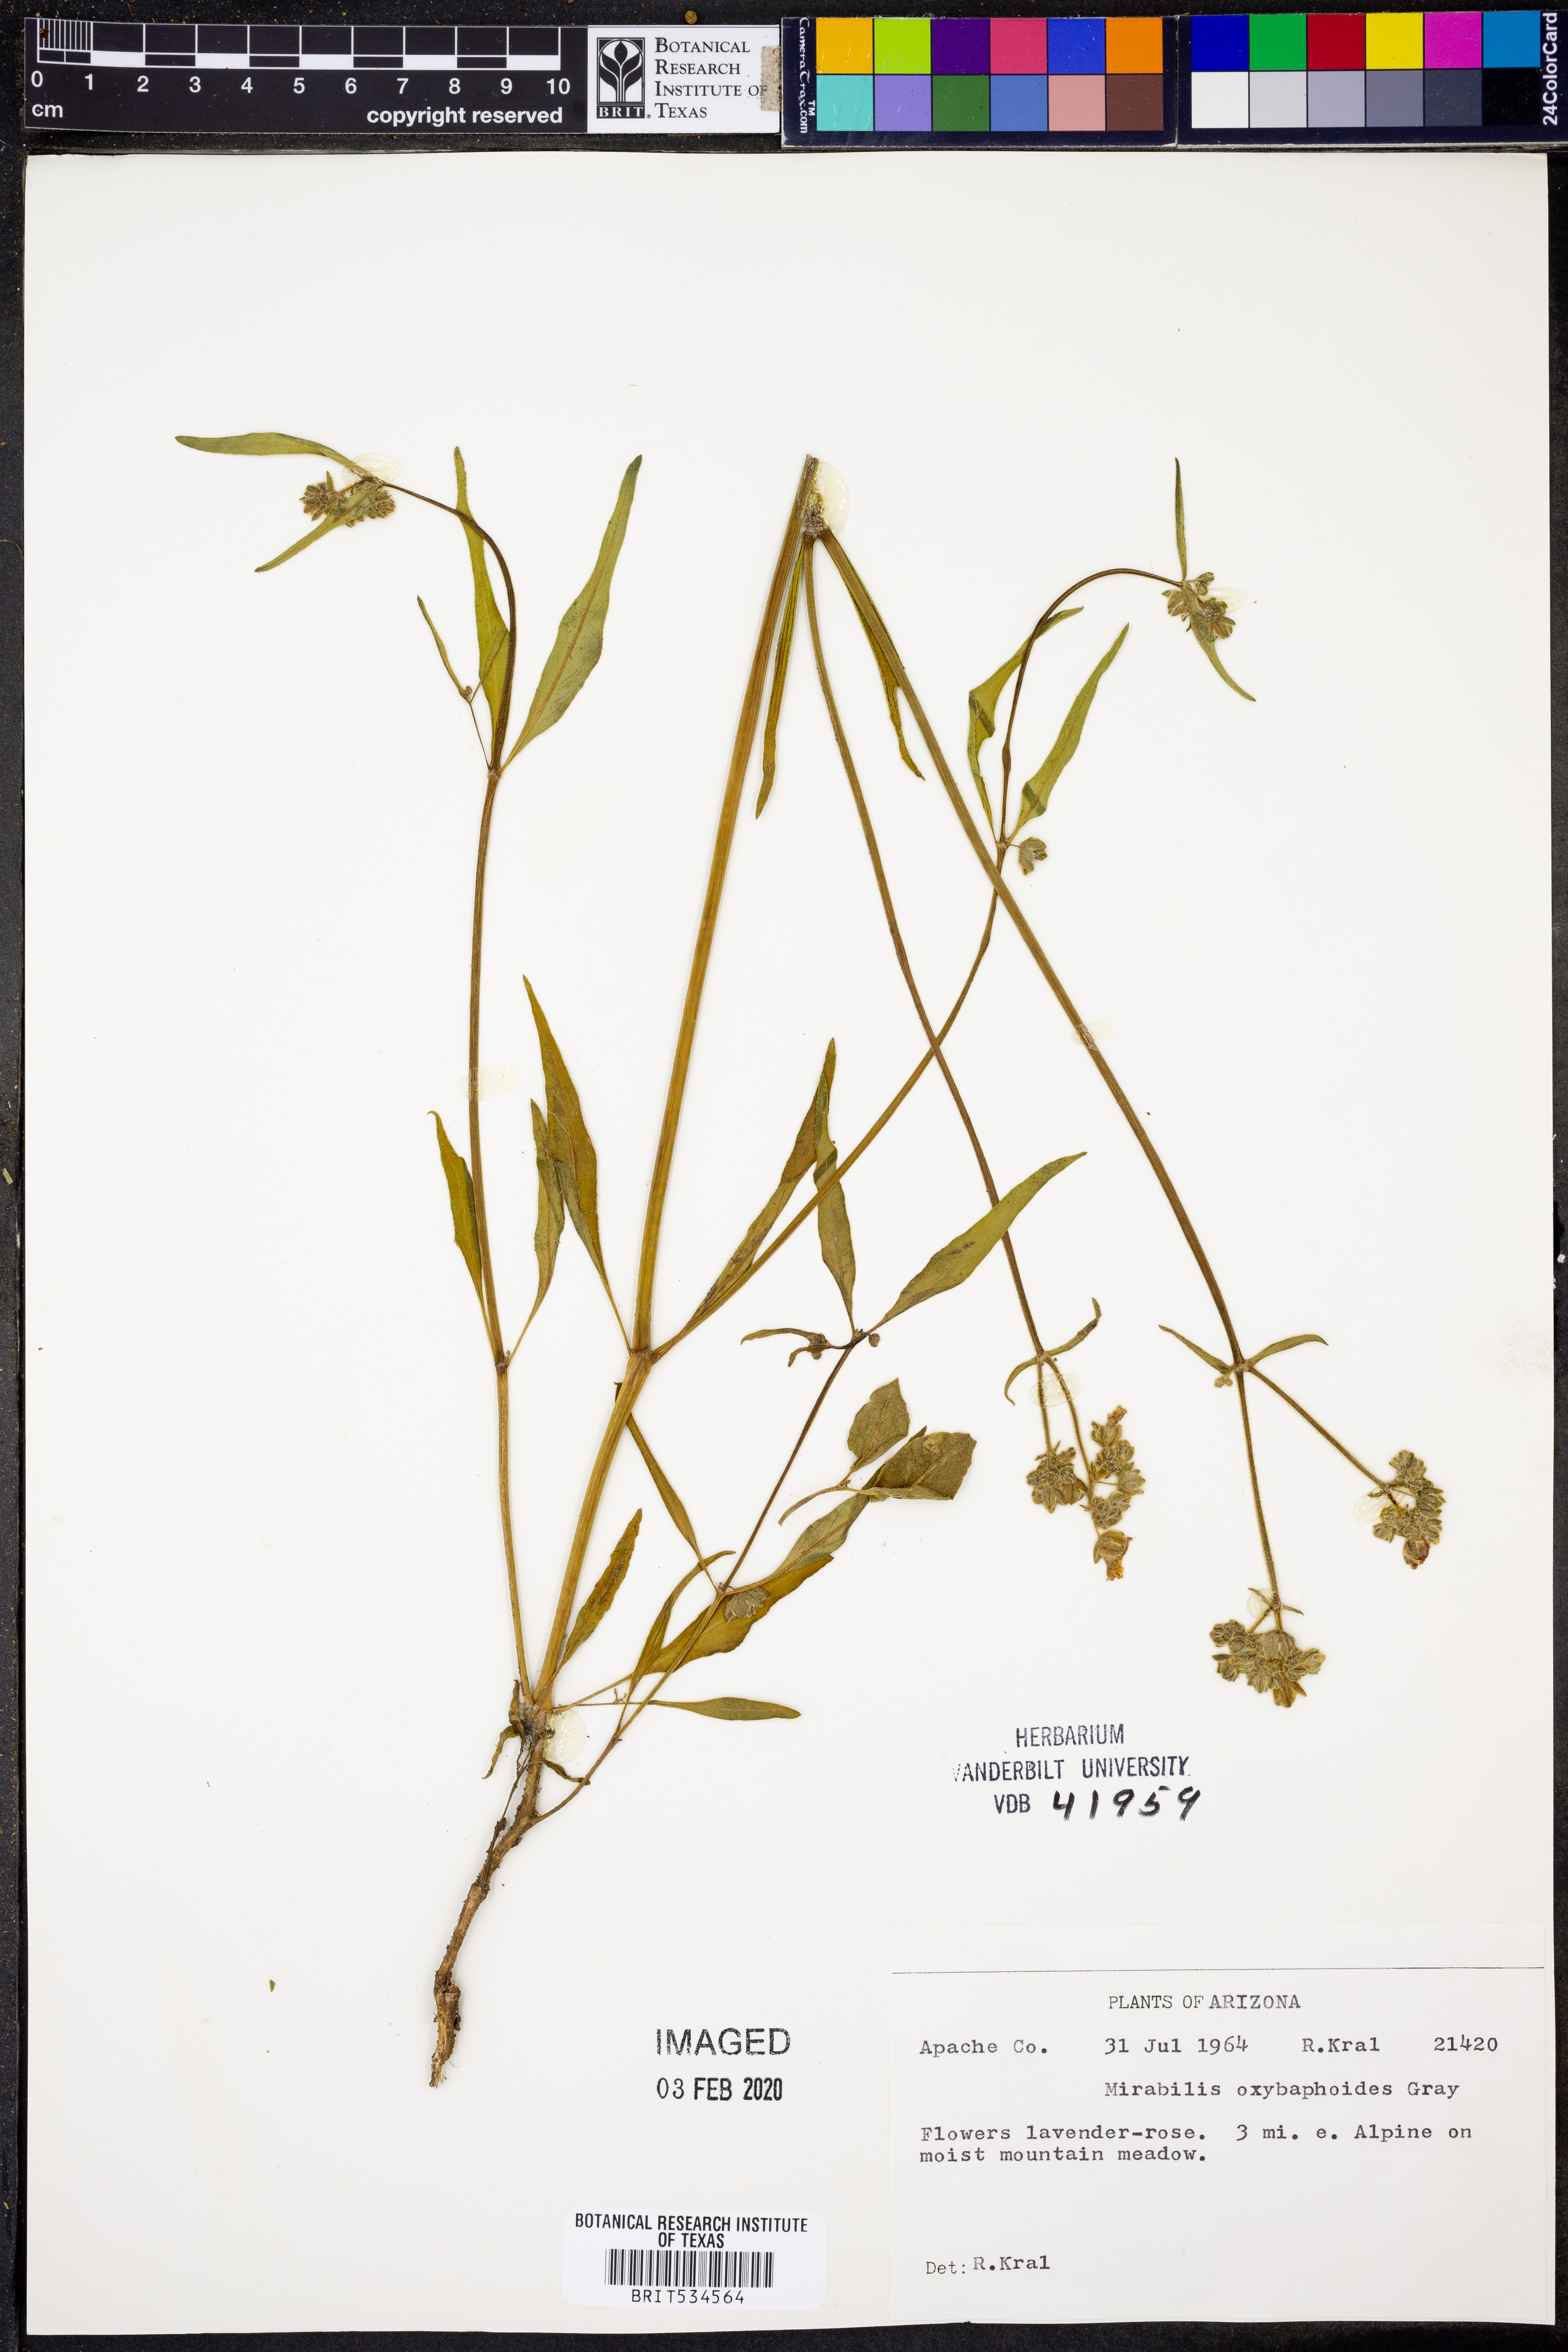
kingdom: Plantae
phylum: Tracheophyta
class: Magnoliopsida
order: Caryophyllales
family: Nyctaginaceae
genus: Mirabilis
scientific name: Mirabilis oxybaphoides
